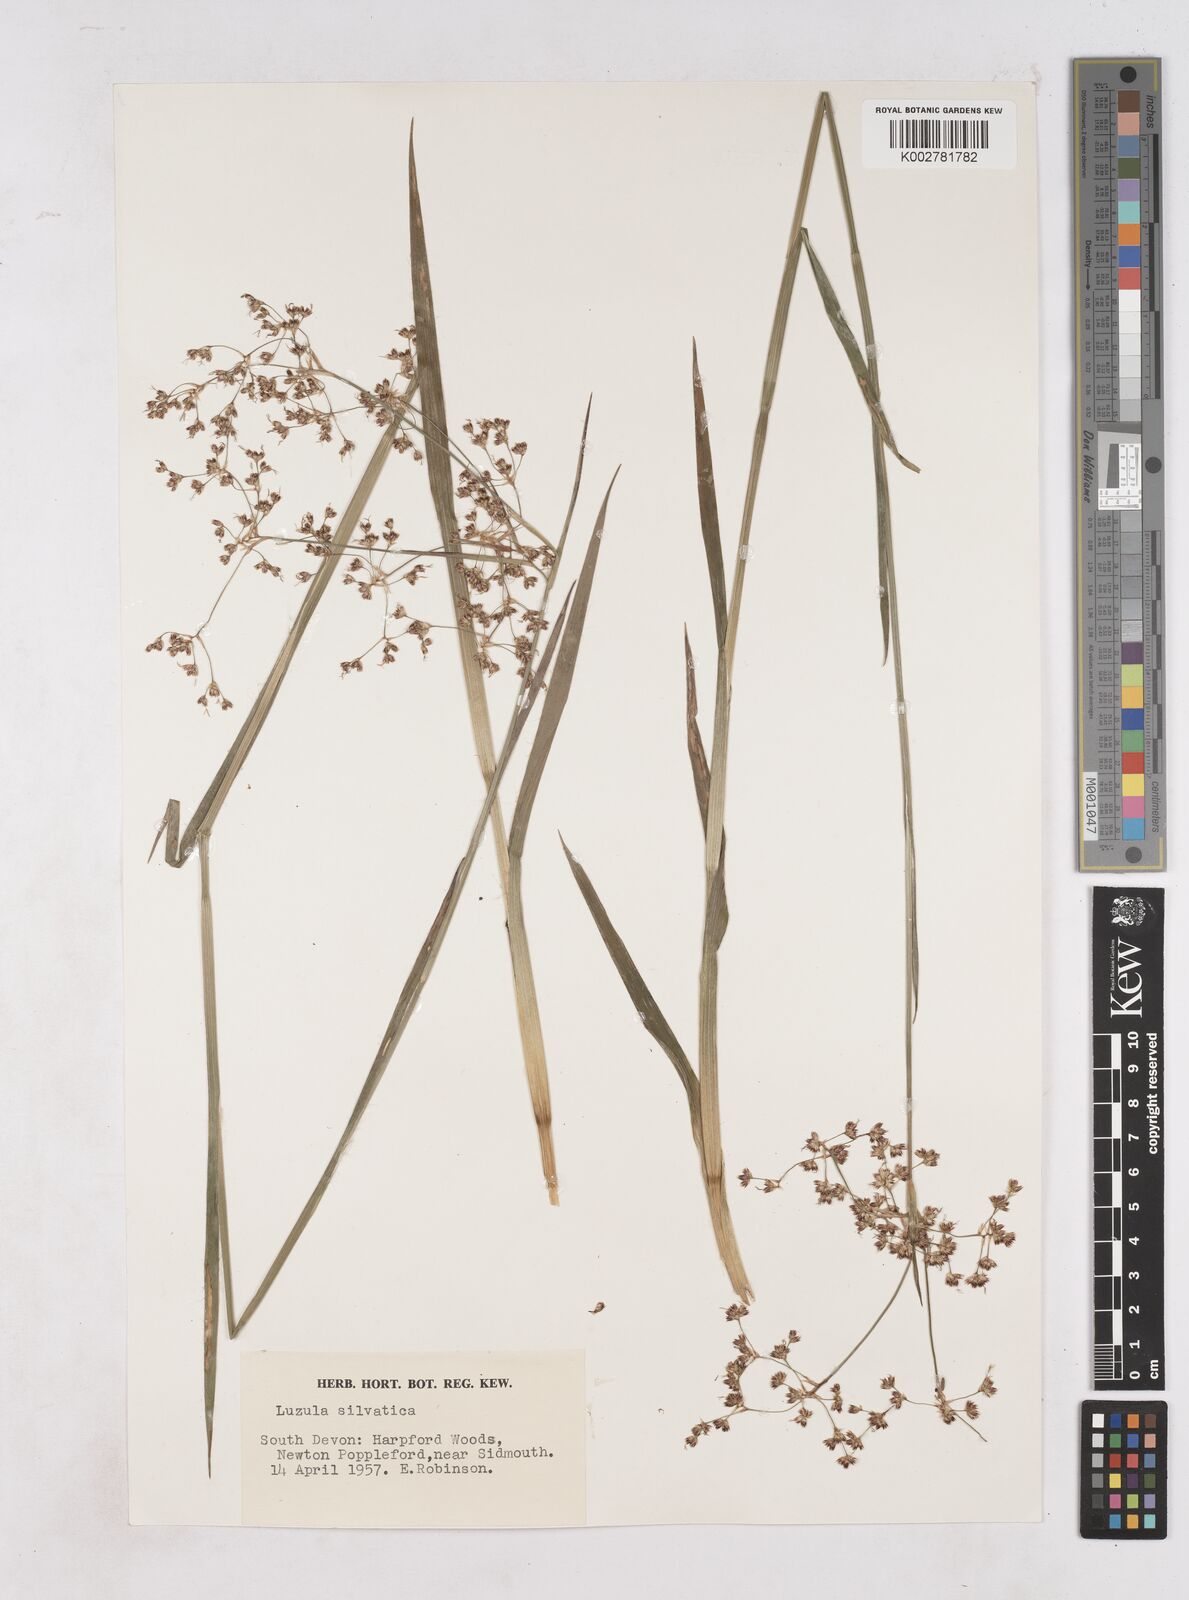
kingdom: Plantae
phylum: Tracheophyta
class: Liliopsida
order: Poales
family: Juncaceae
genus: Luzula
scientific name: Luzula sylvatica
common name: Great wood-rush
